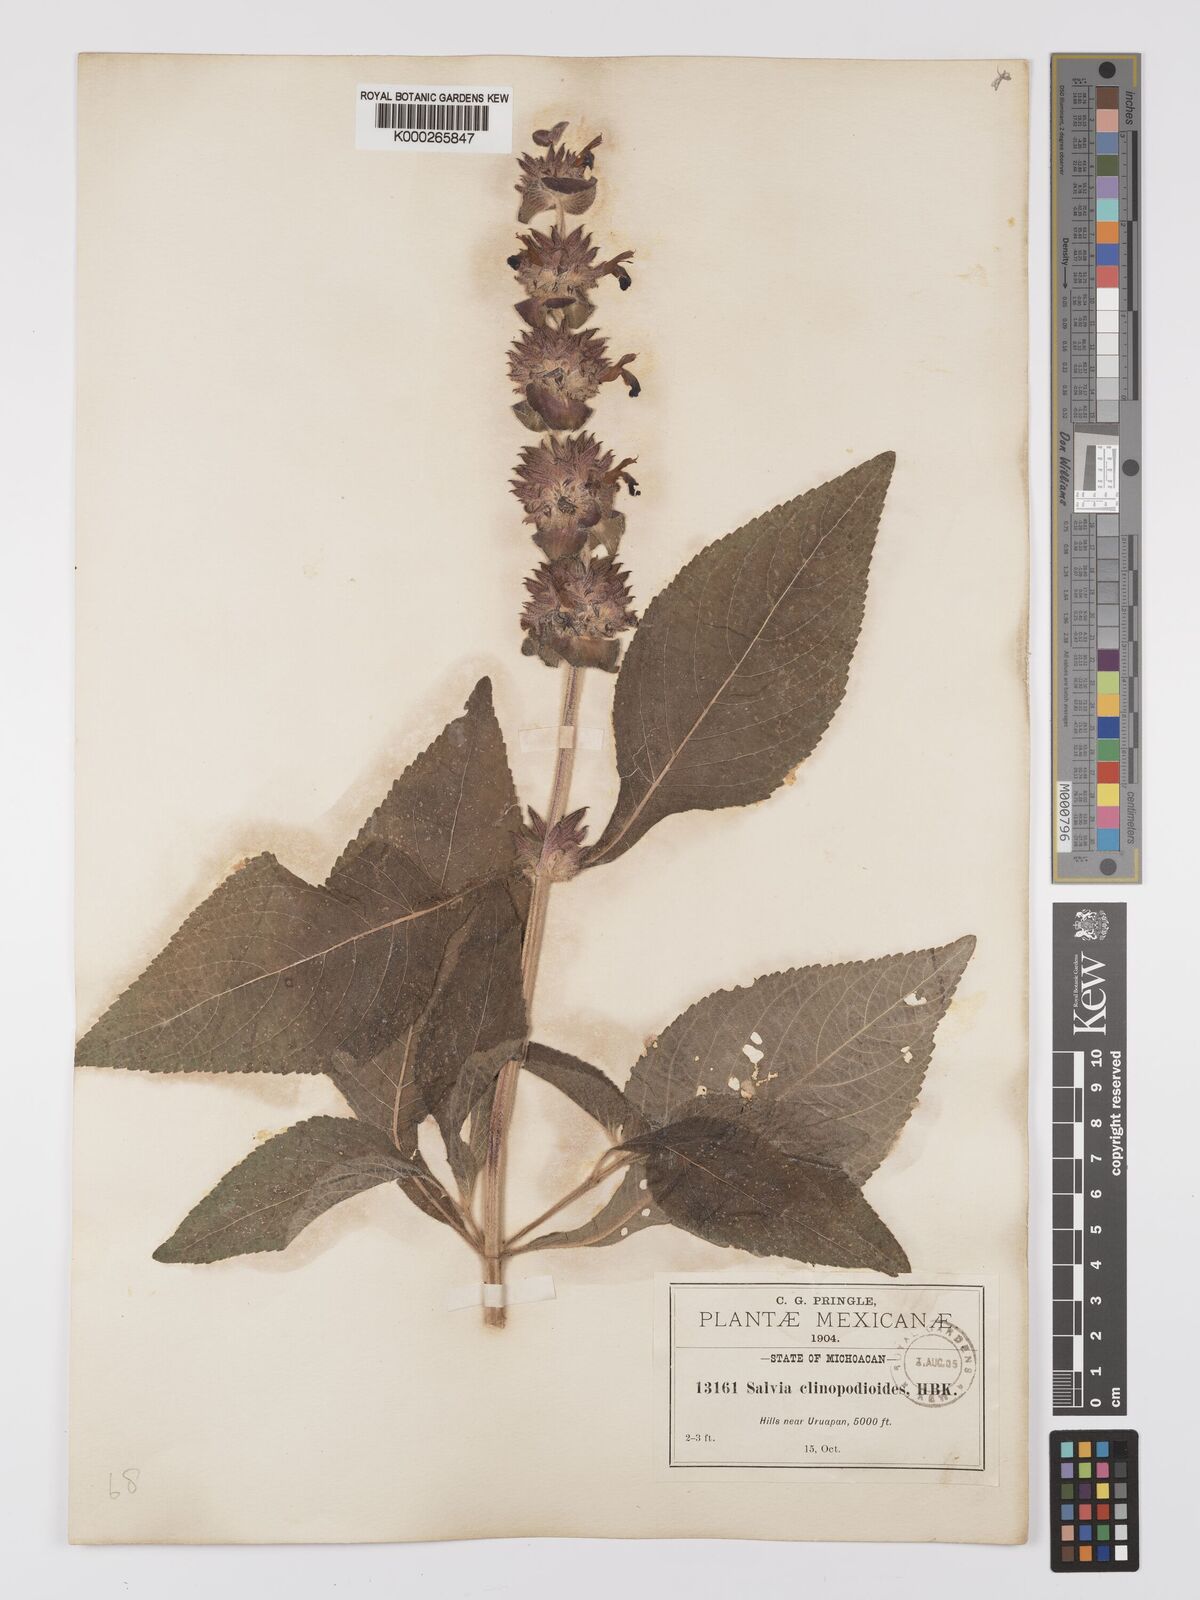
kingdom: Plantae
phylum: Tracheophyta
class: Magnoliopsida
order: Lamiales
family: Lamiaceae
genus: Salvia
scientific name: Salvia clinopodioides
